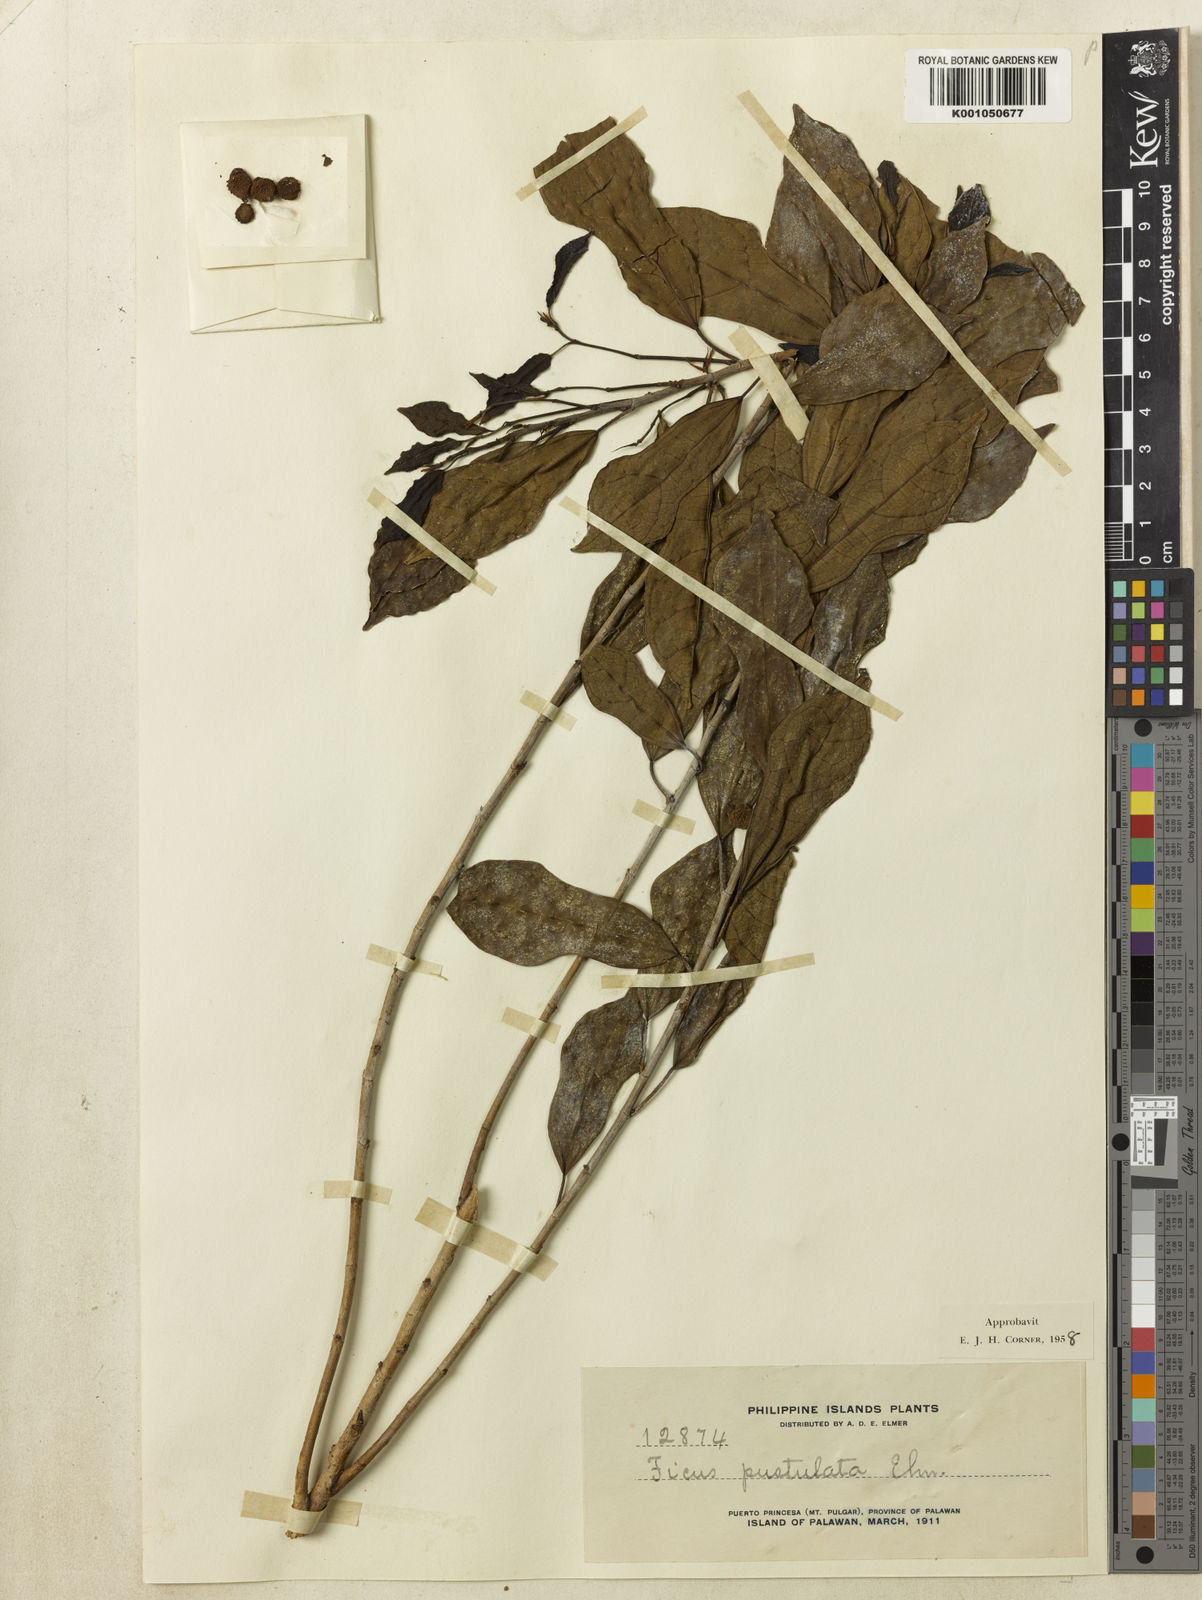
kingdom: Plantae
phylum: Tracheophyta
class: Magnoliopsida
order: Rosales
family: Moraceae
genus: Ficus
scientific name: Ficus pustulata
